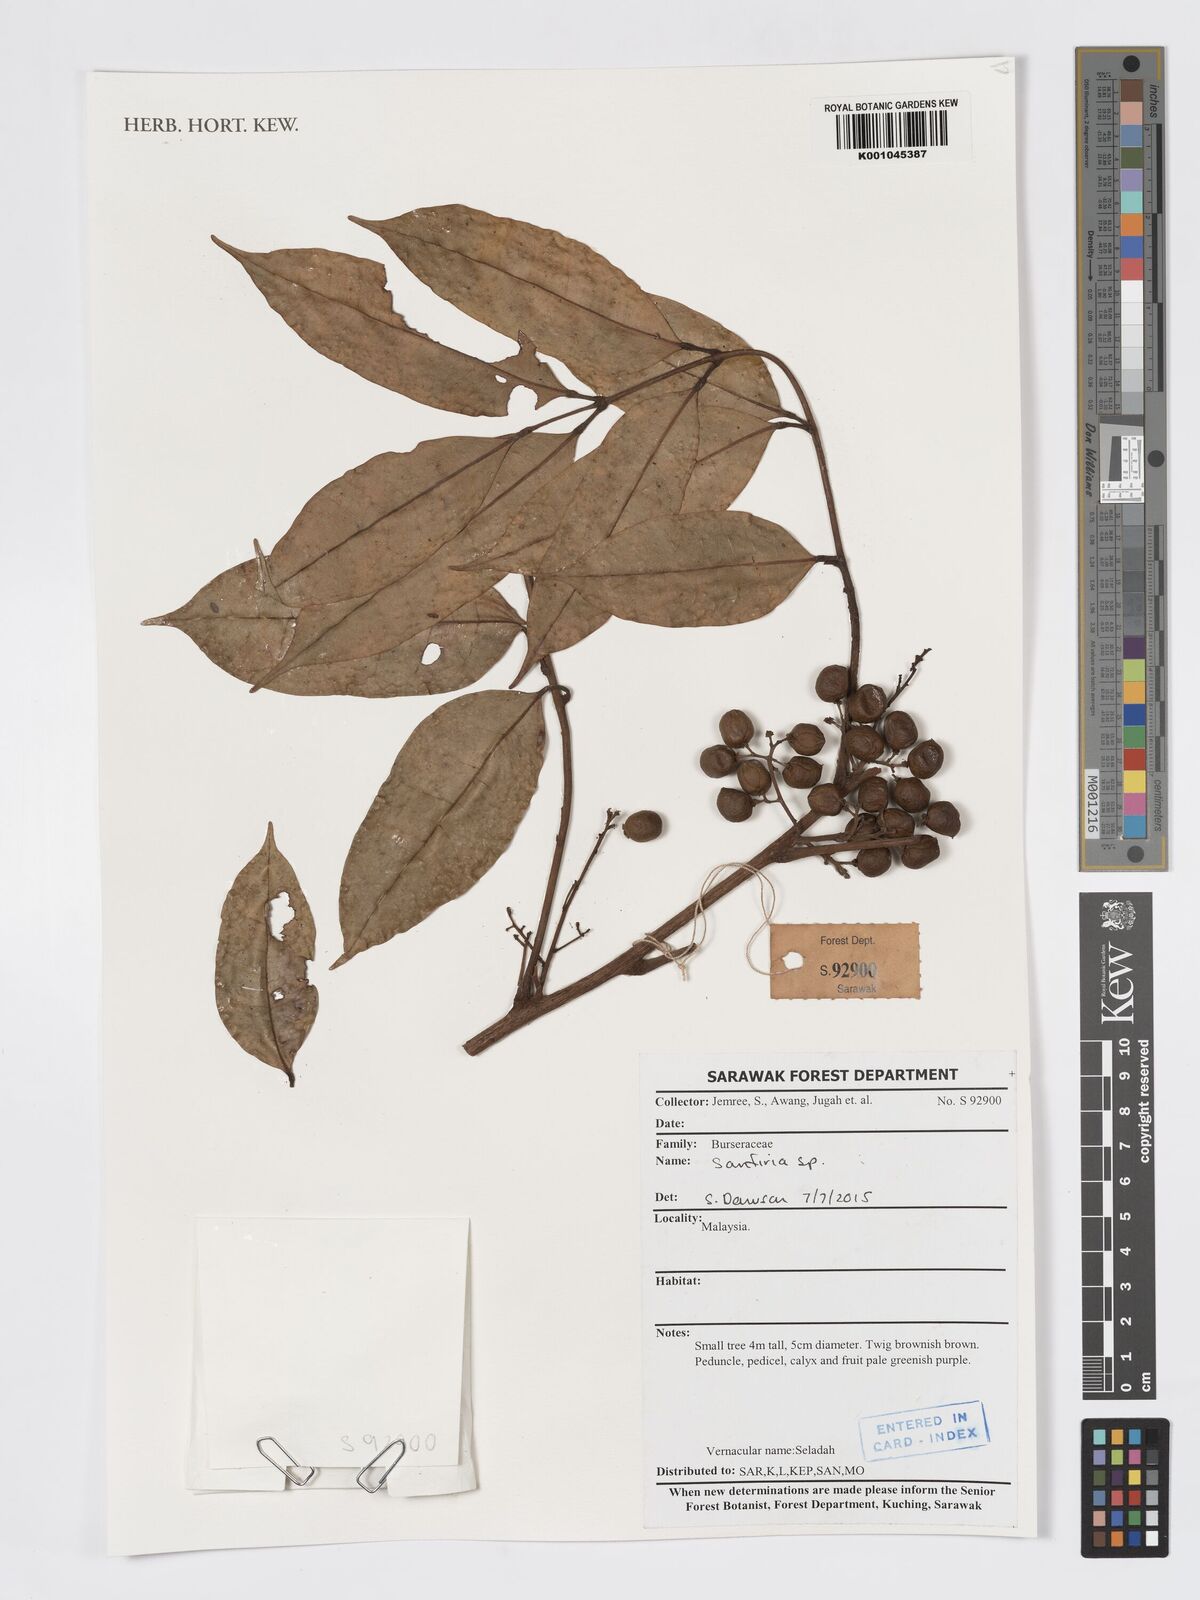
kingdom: Plantae
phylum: Tracheophyta
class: Magnoliopsida
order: Sapindales
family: Burseraceae
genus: Santiria
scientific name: Santiria
